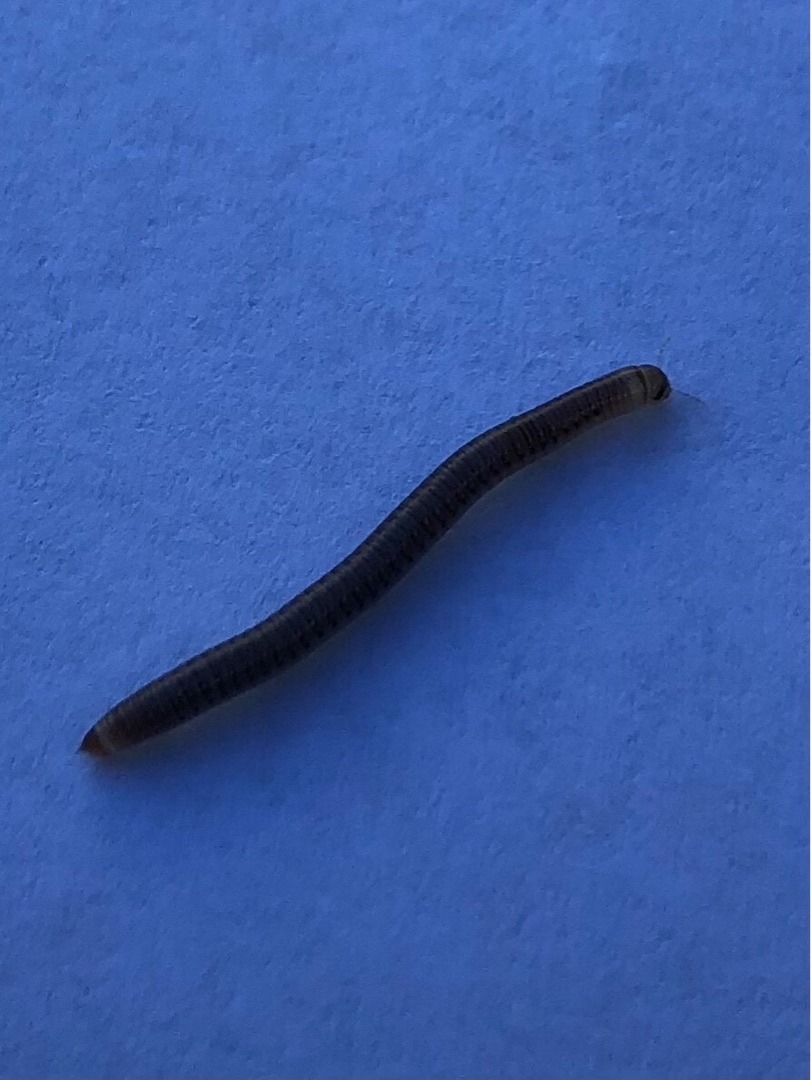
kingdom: Animalia
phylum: Arthropoda
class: Diplopoda
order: Julida
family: Julidae
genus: Allajulus
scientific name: Allajulus
